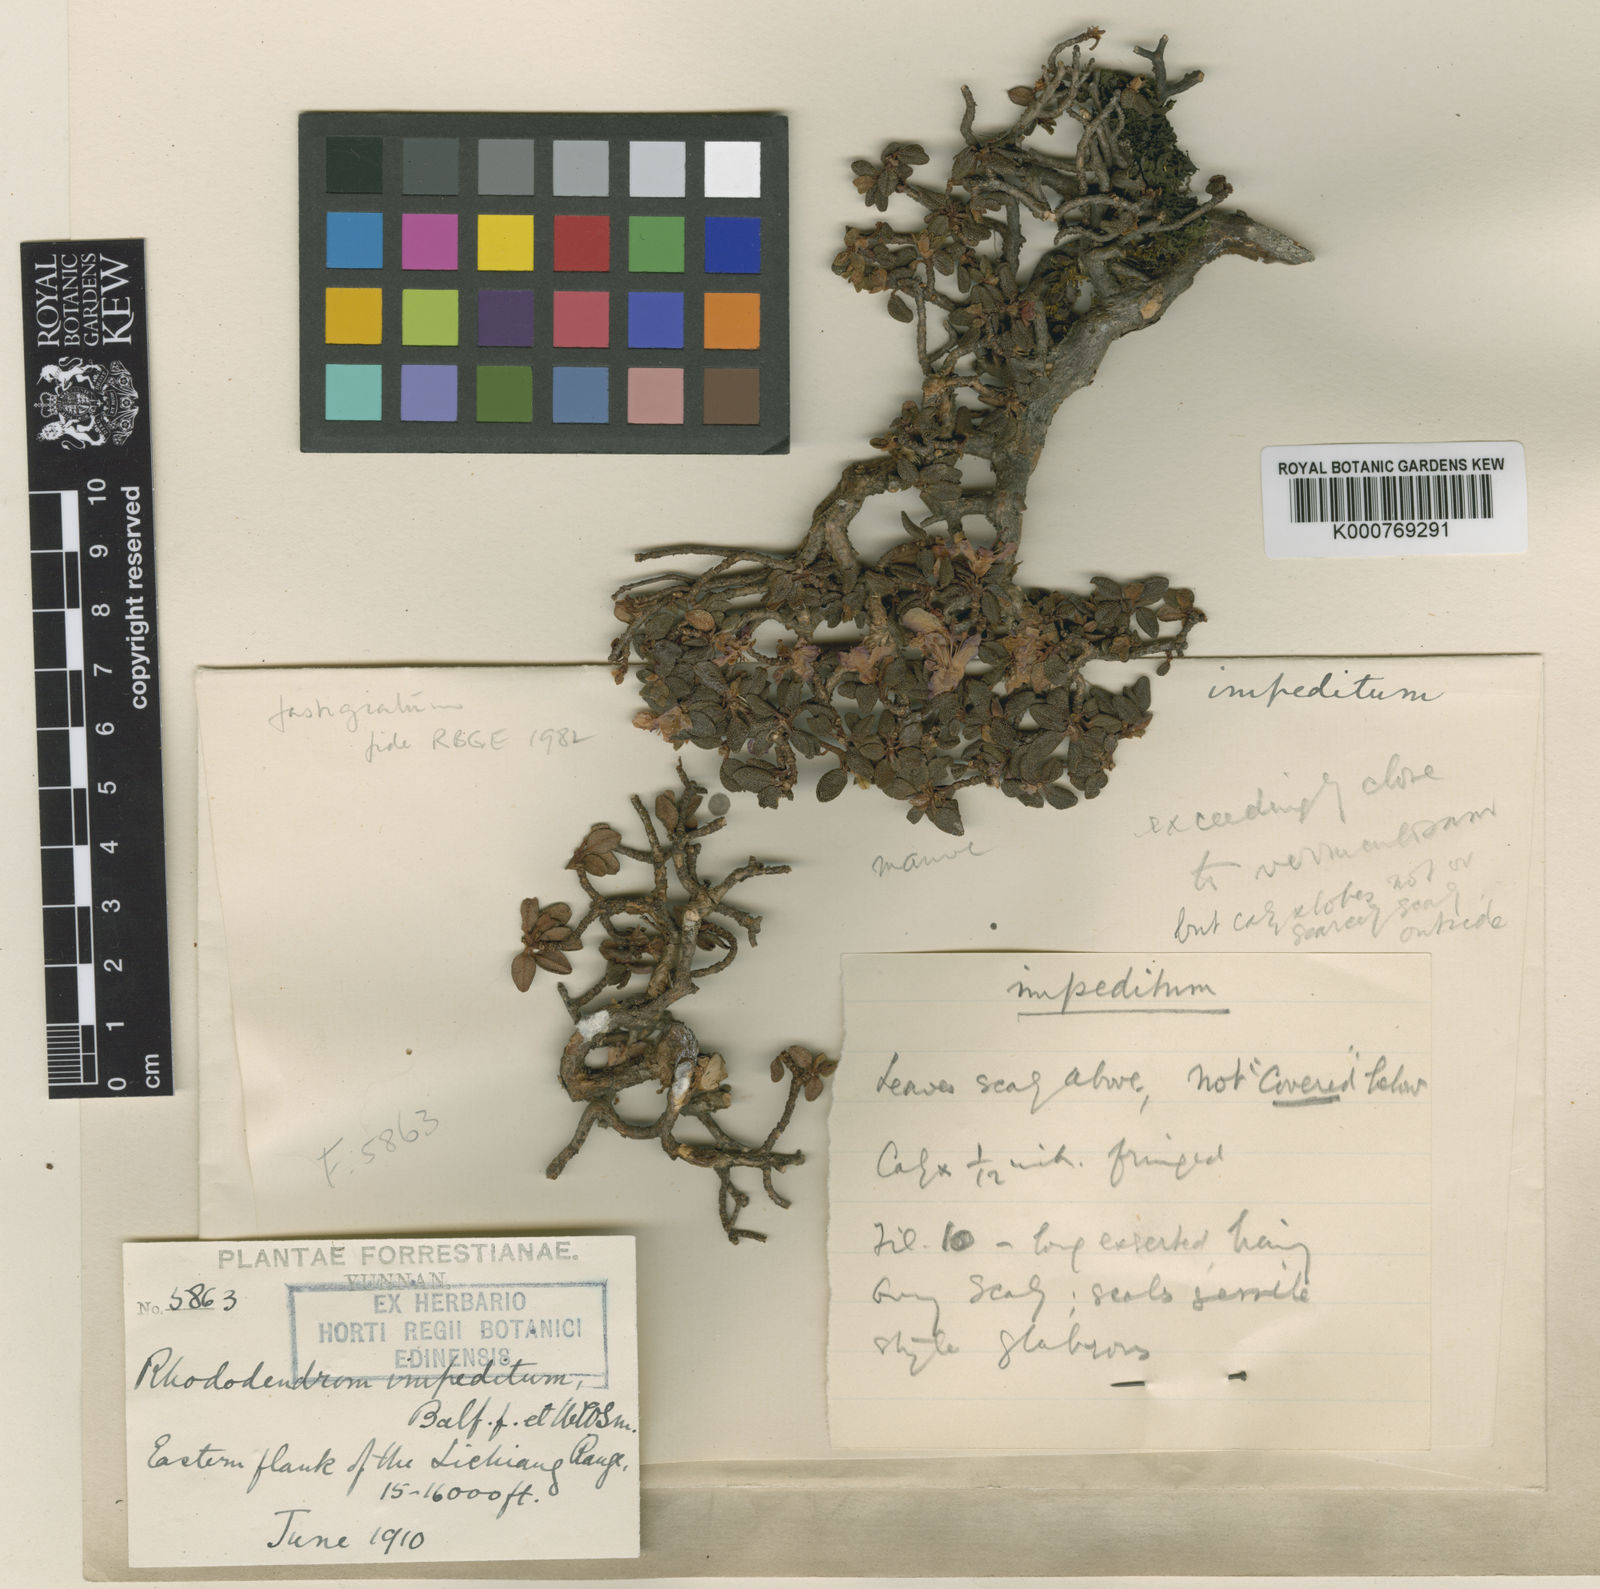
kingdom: Plantae
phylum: Tracheophyta
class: Magnoliopsida
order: Ericales
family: Ericaceae
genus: Rhododendron
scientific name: Rhododendron impeditum
